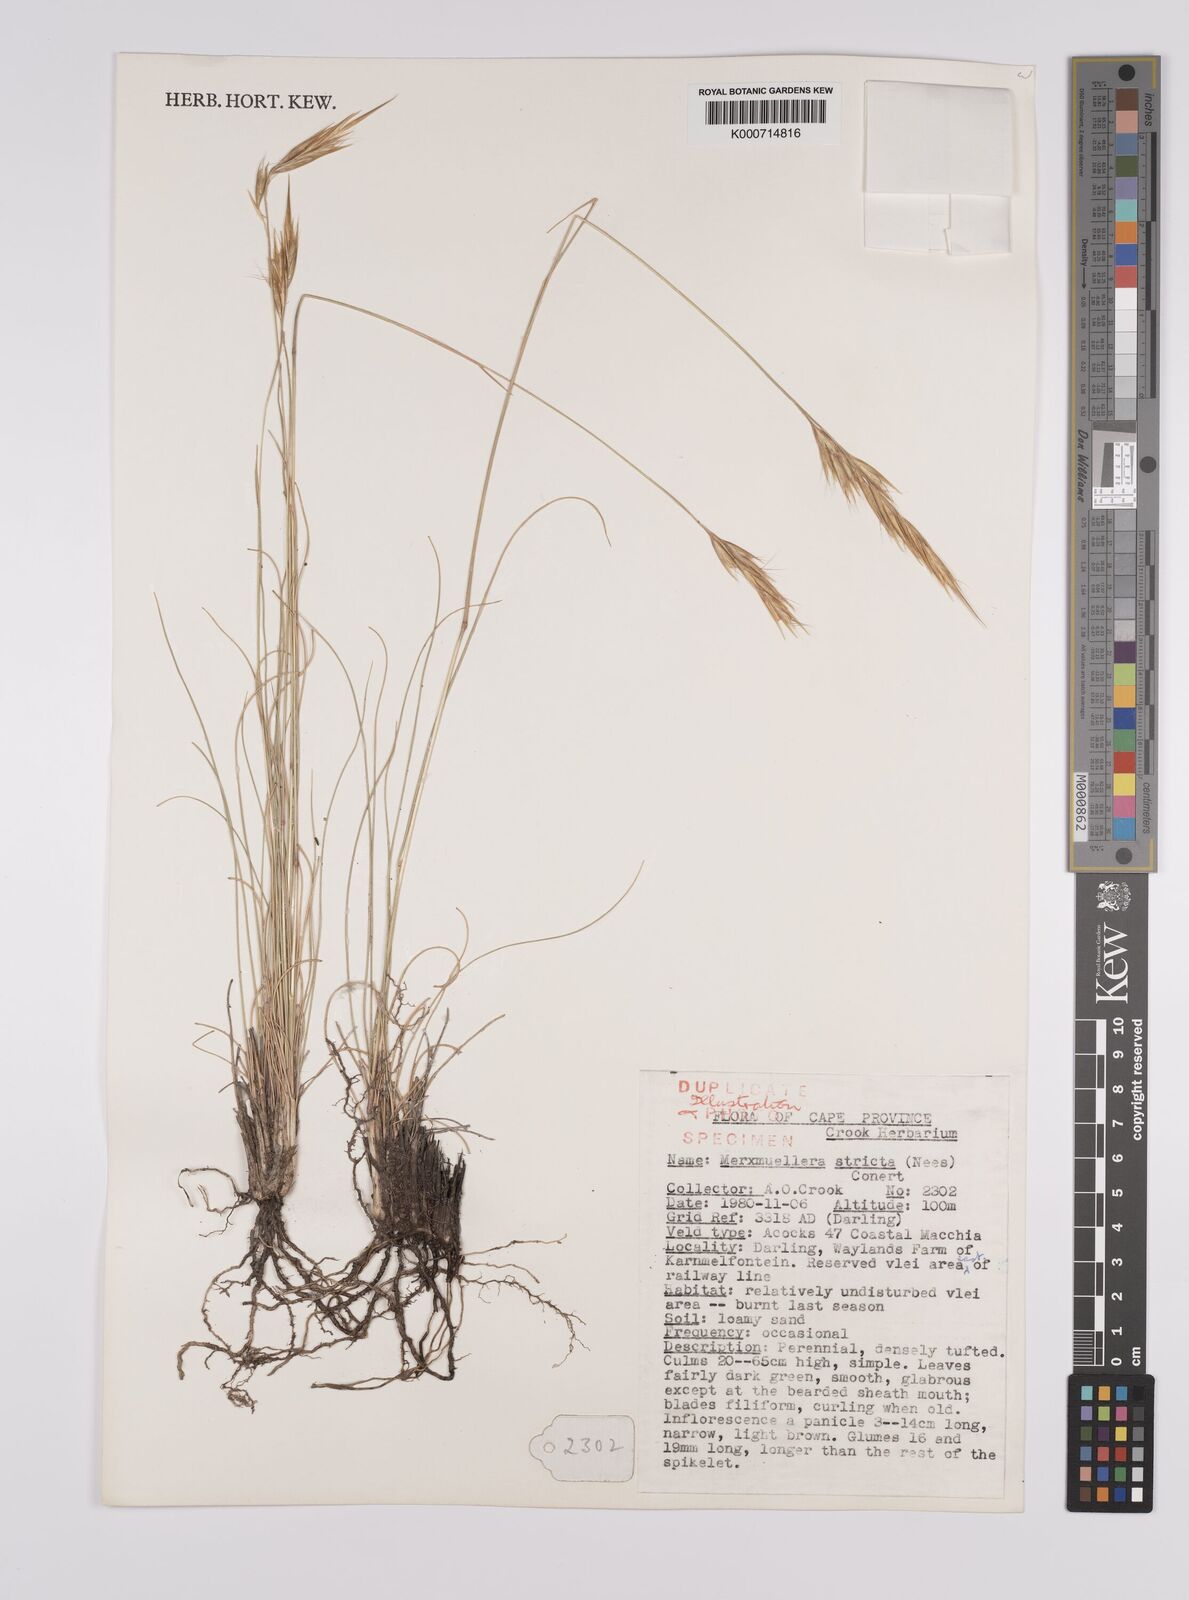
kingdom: Plantae
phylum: Tracheophyta
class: Liliopsida
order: Poales
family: Poaceae
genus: Rytidosperma
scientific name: Rytidosperma
